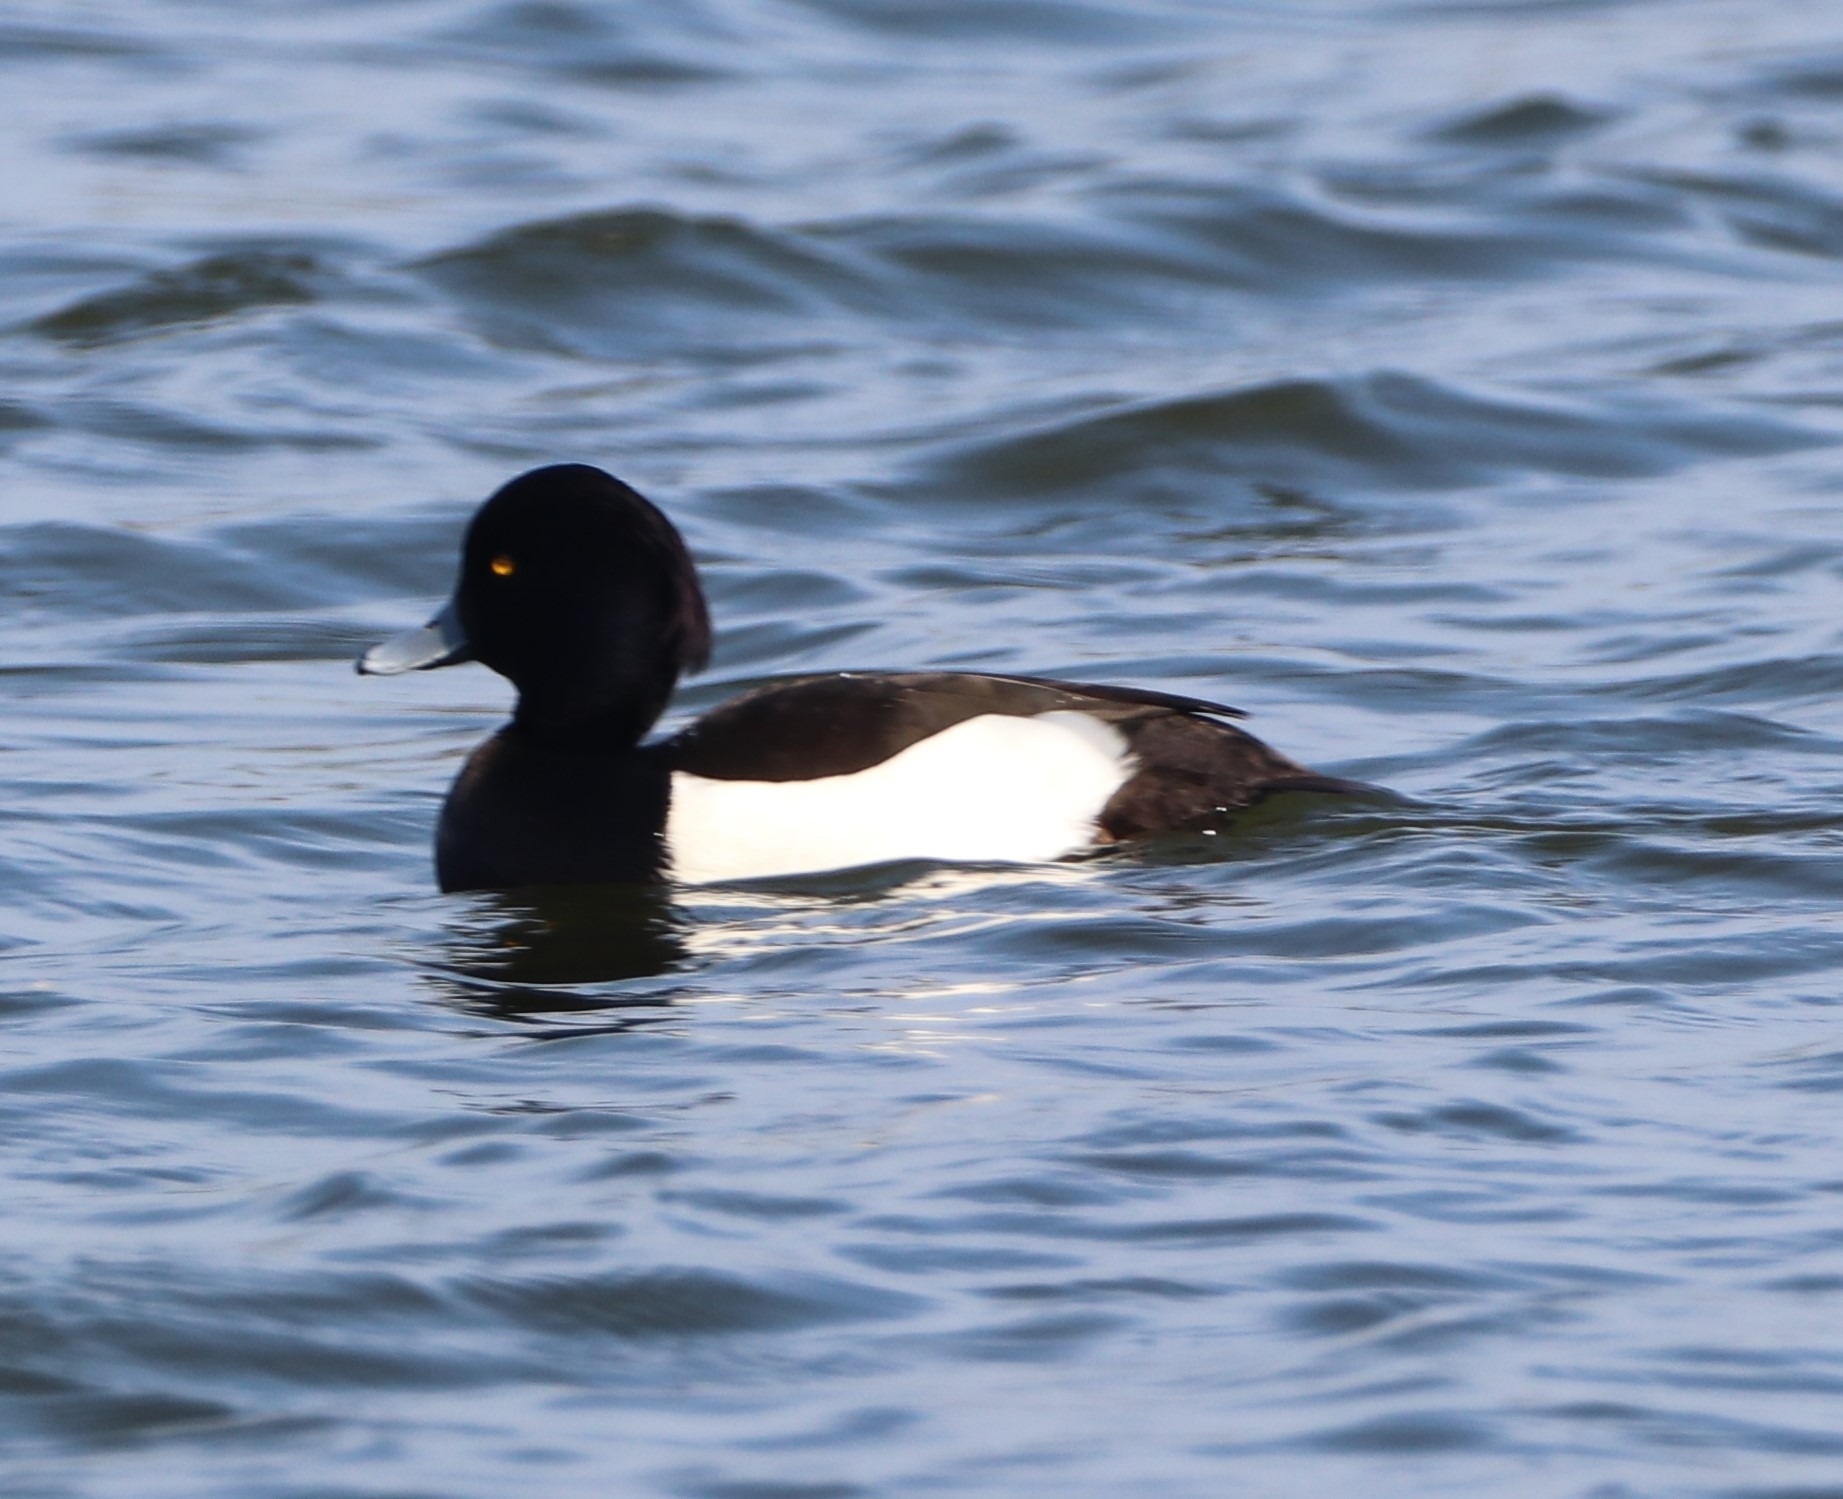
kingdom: Animalia
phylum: Chordata
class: Aves
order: Anseriformes
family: Anatidae
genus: Aythya
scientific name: Aythya fuligula
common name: Troldand
